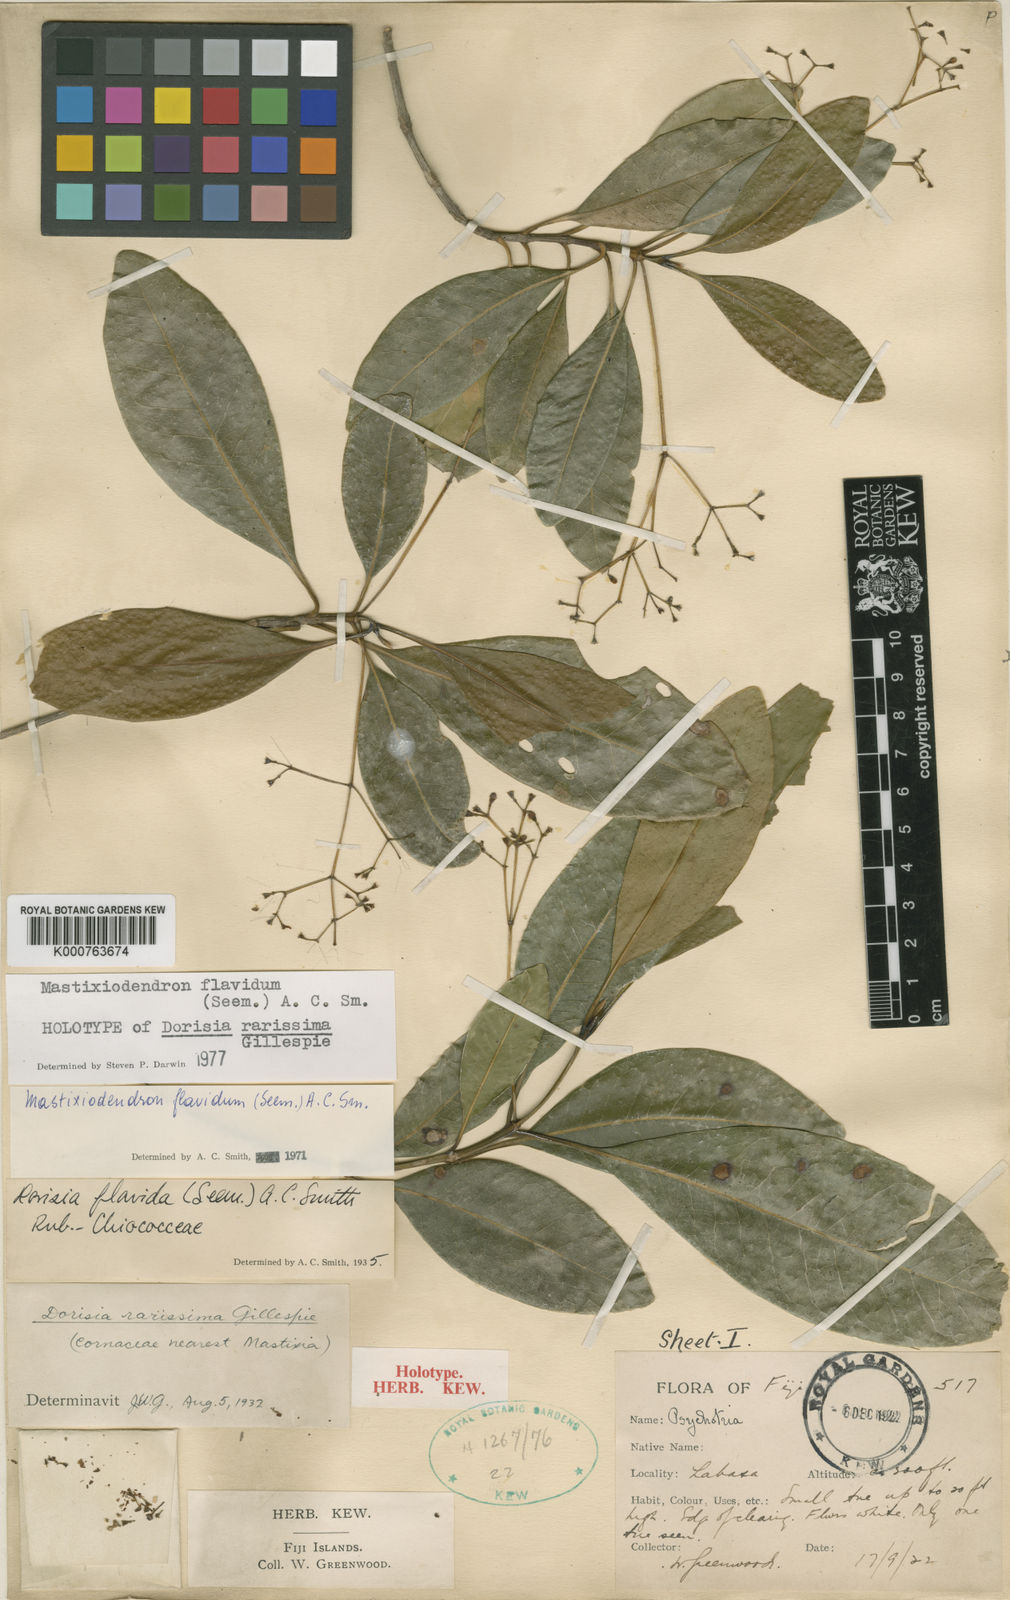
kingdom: Plantae
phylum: Tracheophyta
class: Magnoliopsida
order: Gentianales
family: Rubiaceae
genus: Mastixiodendron
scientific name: Mastixiodendron flavidum
